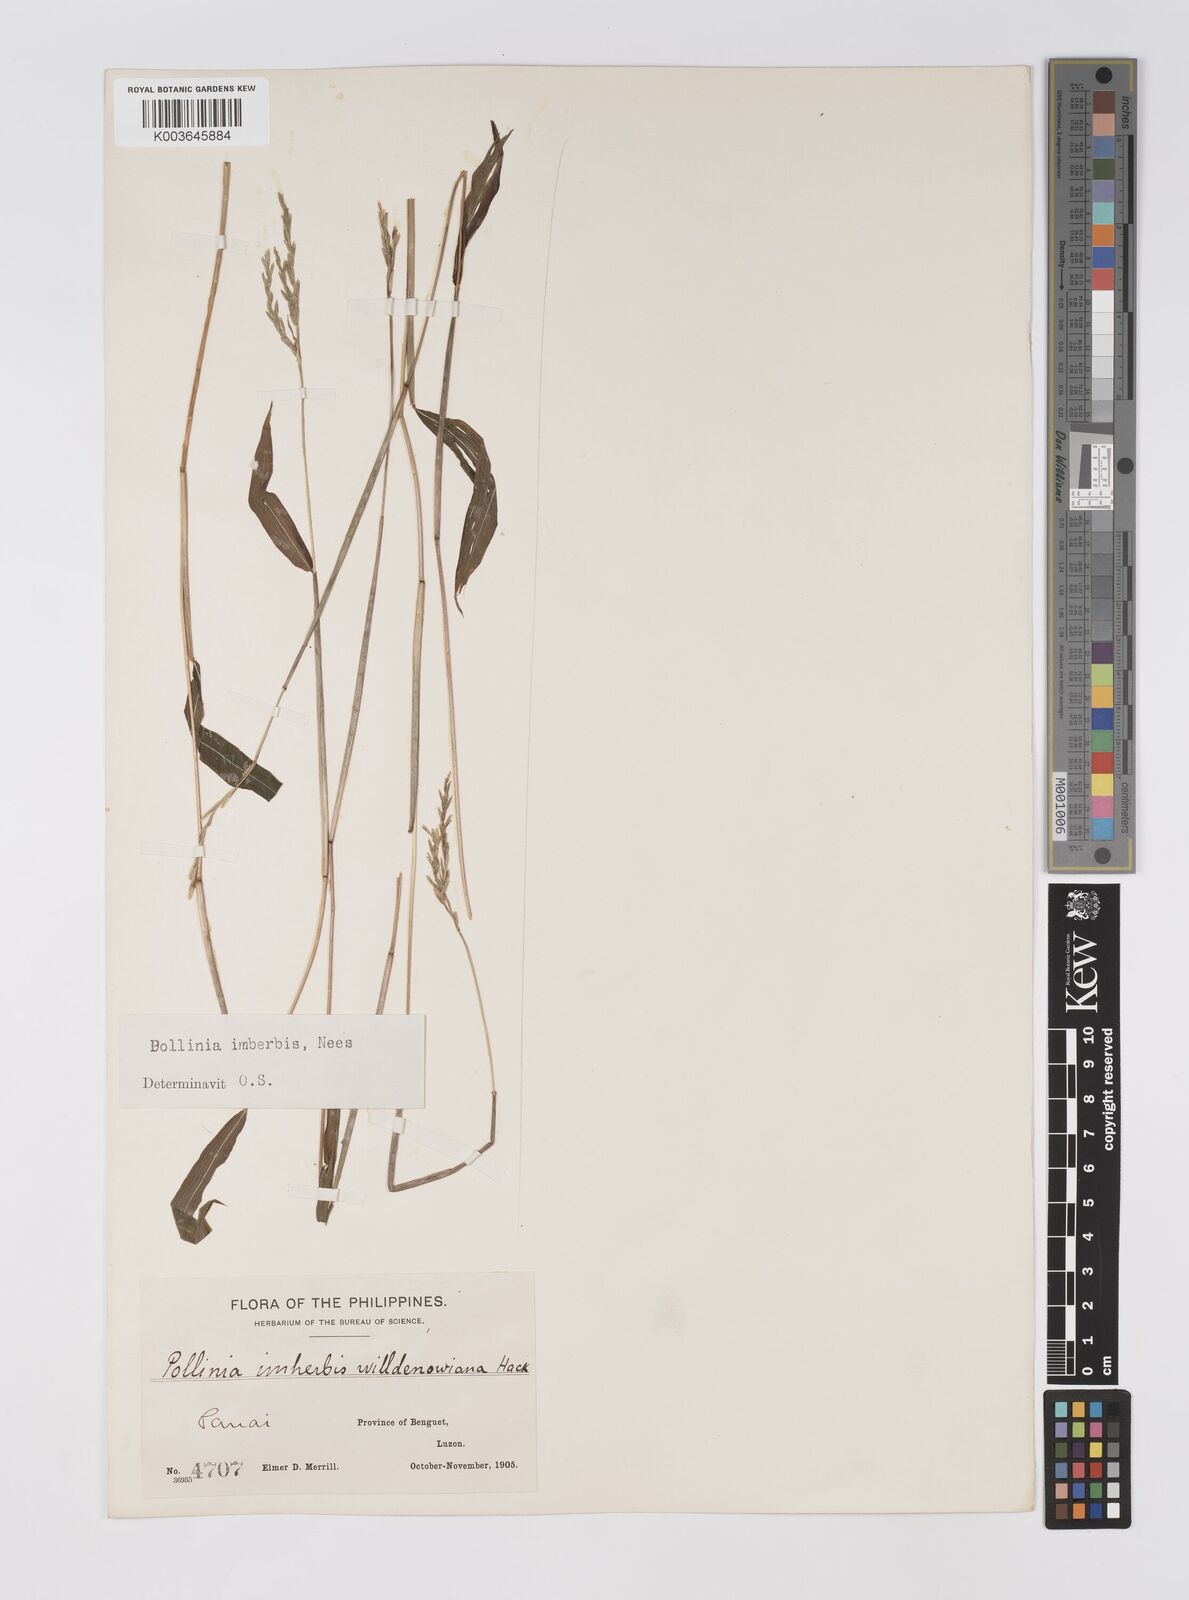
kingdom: Plantae
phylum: Tracheophyta
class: Liliopsida
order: Poales
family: Poaceae
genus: Microstegium
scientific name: Microstegium vimineum
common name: Japanese stiltgrass
